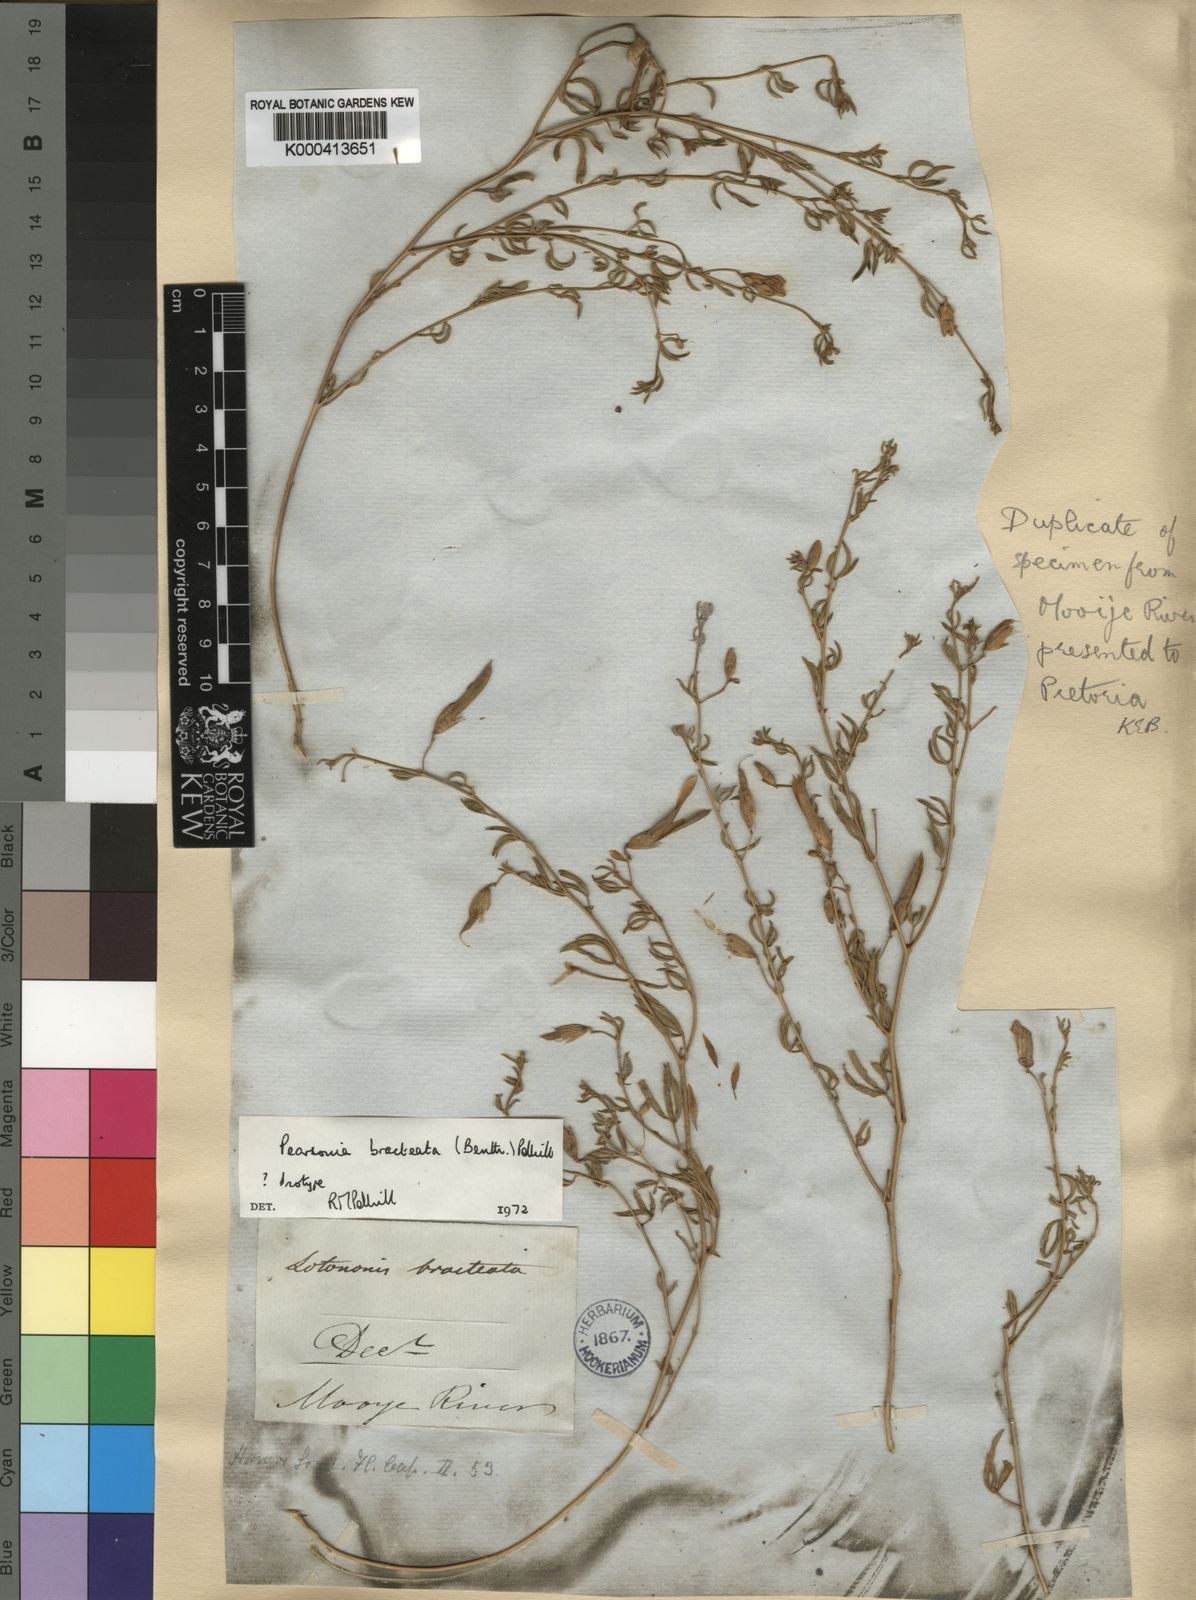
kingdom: Plantae
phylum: Tracheophyta
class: Magnoliopsida
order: Fabales
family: Fabaceae
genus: Pearsonia
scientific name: Pearsonia bracteata
